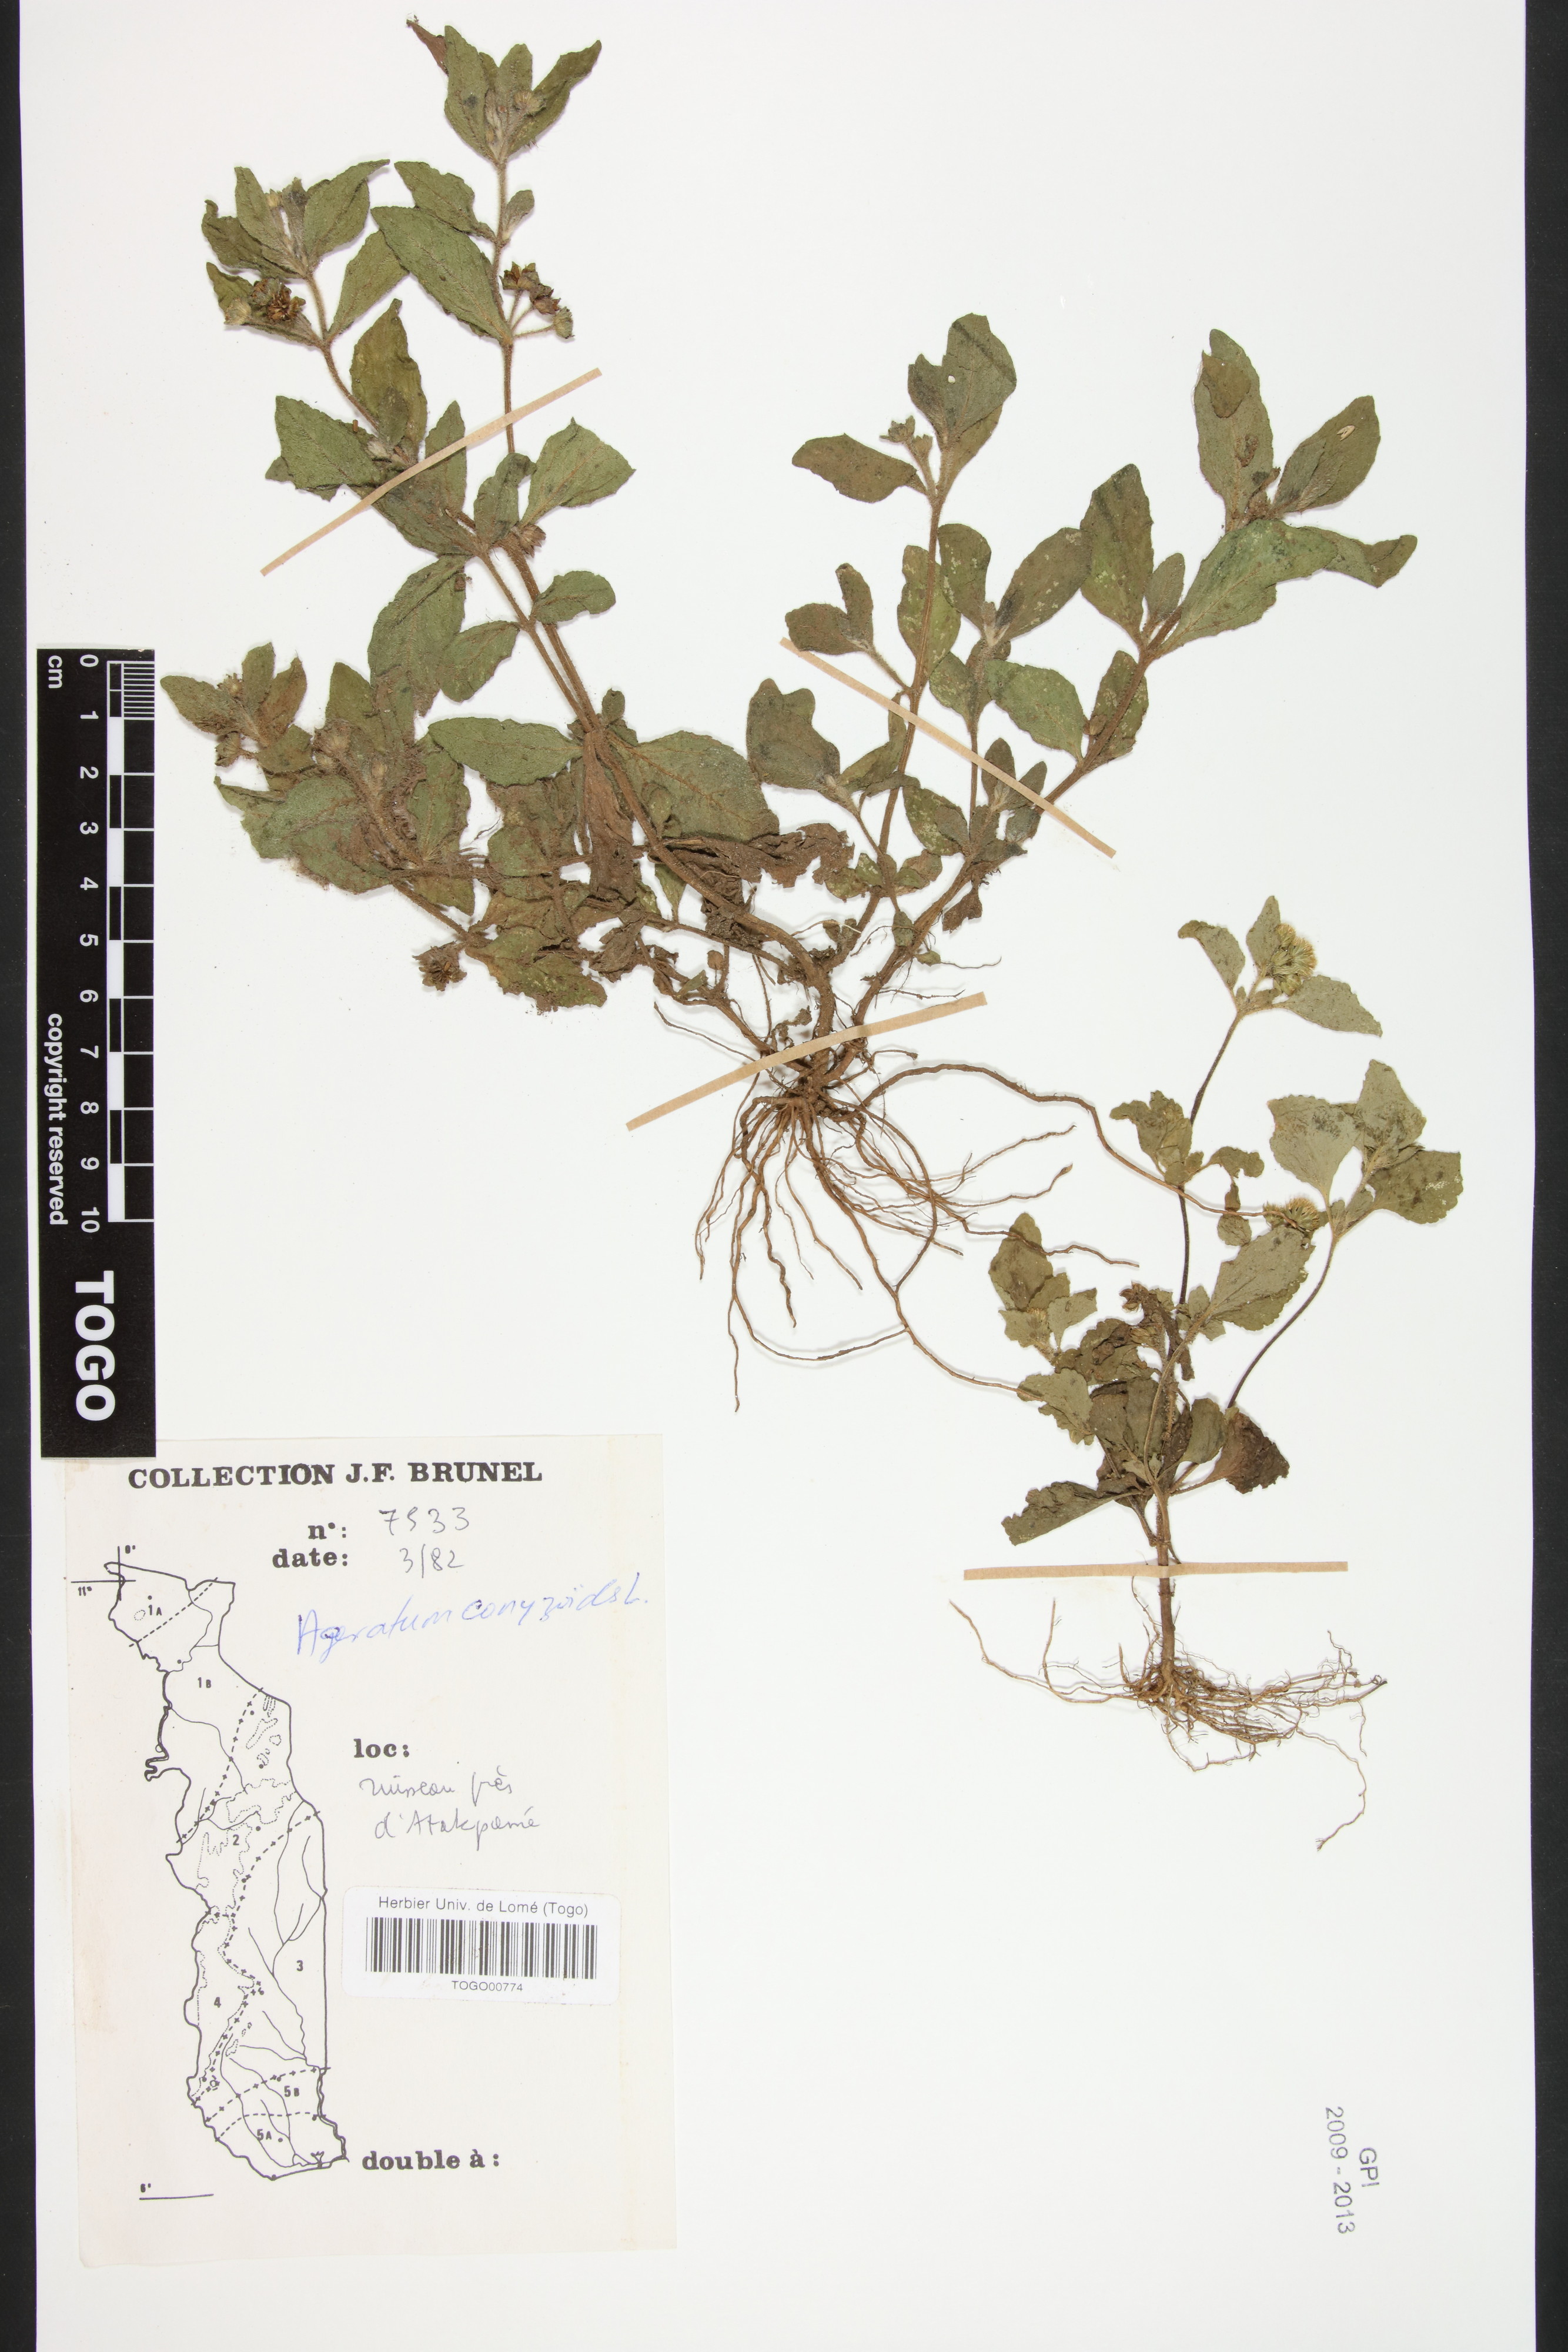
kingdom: Plantae
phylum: Tracheophyta
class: Magnoliopsida
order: Asterales
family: Asteraceae
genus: Ageratum
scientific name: Ageratum conyzoides
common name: Tropical whiteweed
